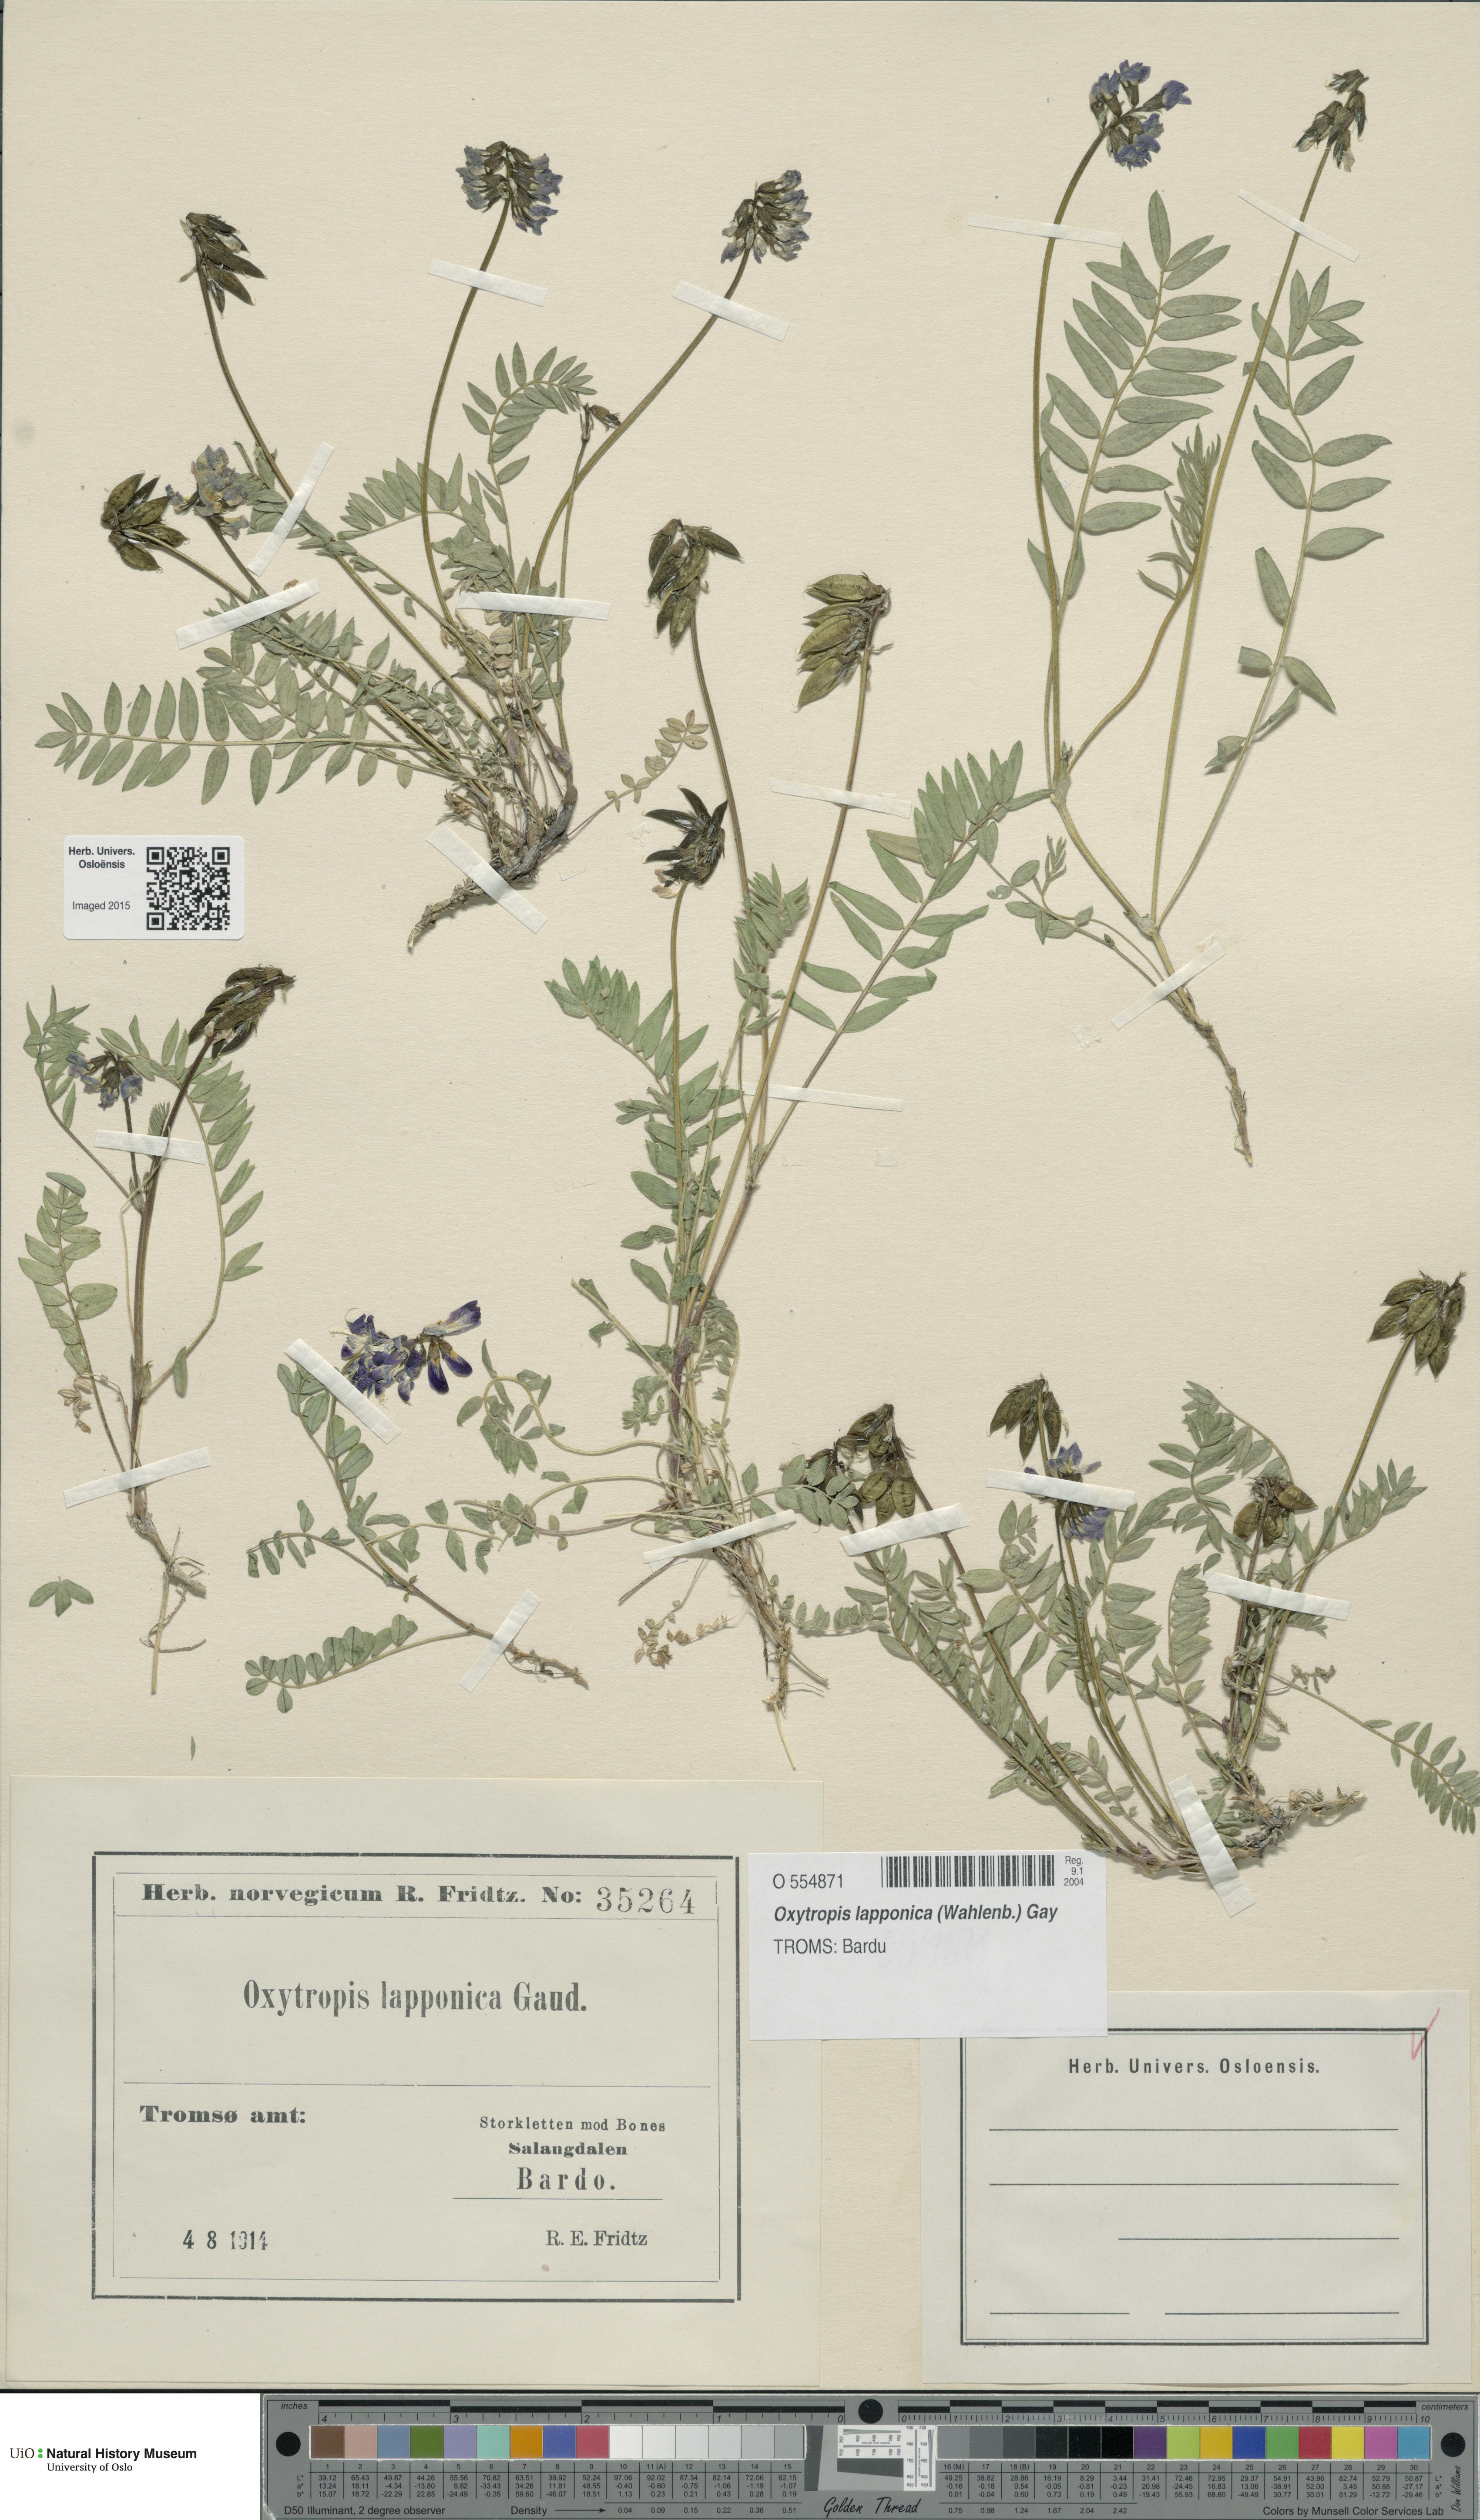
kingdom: Plantae
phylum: Tracheophyta
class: Magnoliopsida
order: Fabales
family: Fabaceae
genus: Oxytropis
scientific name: Oxytropis lapponica
